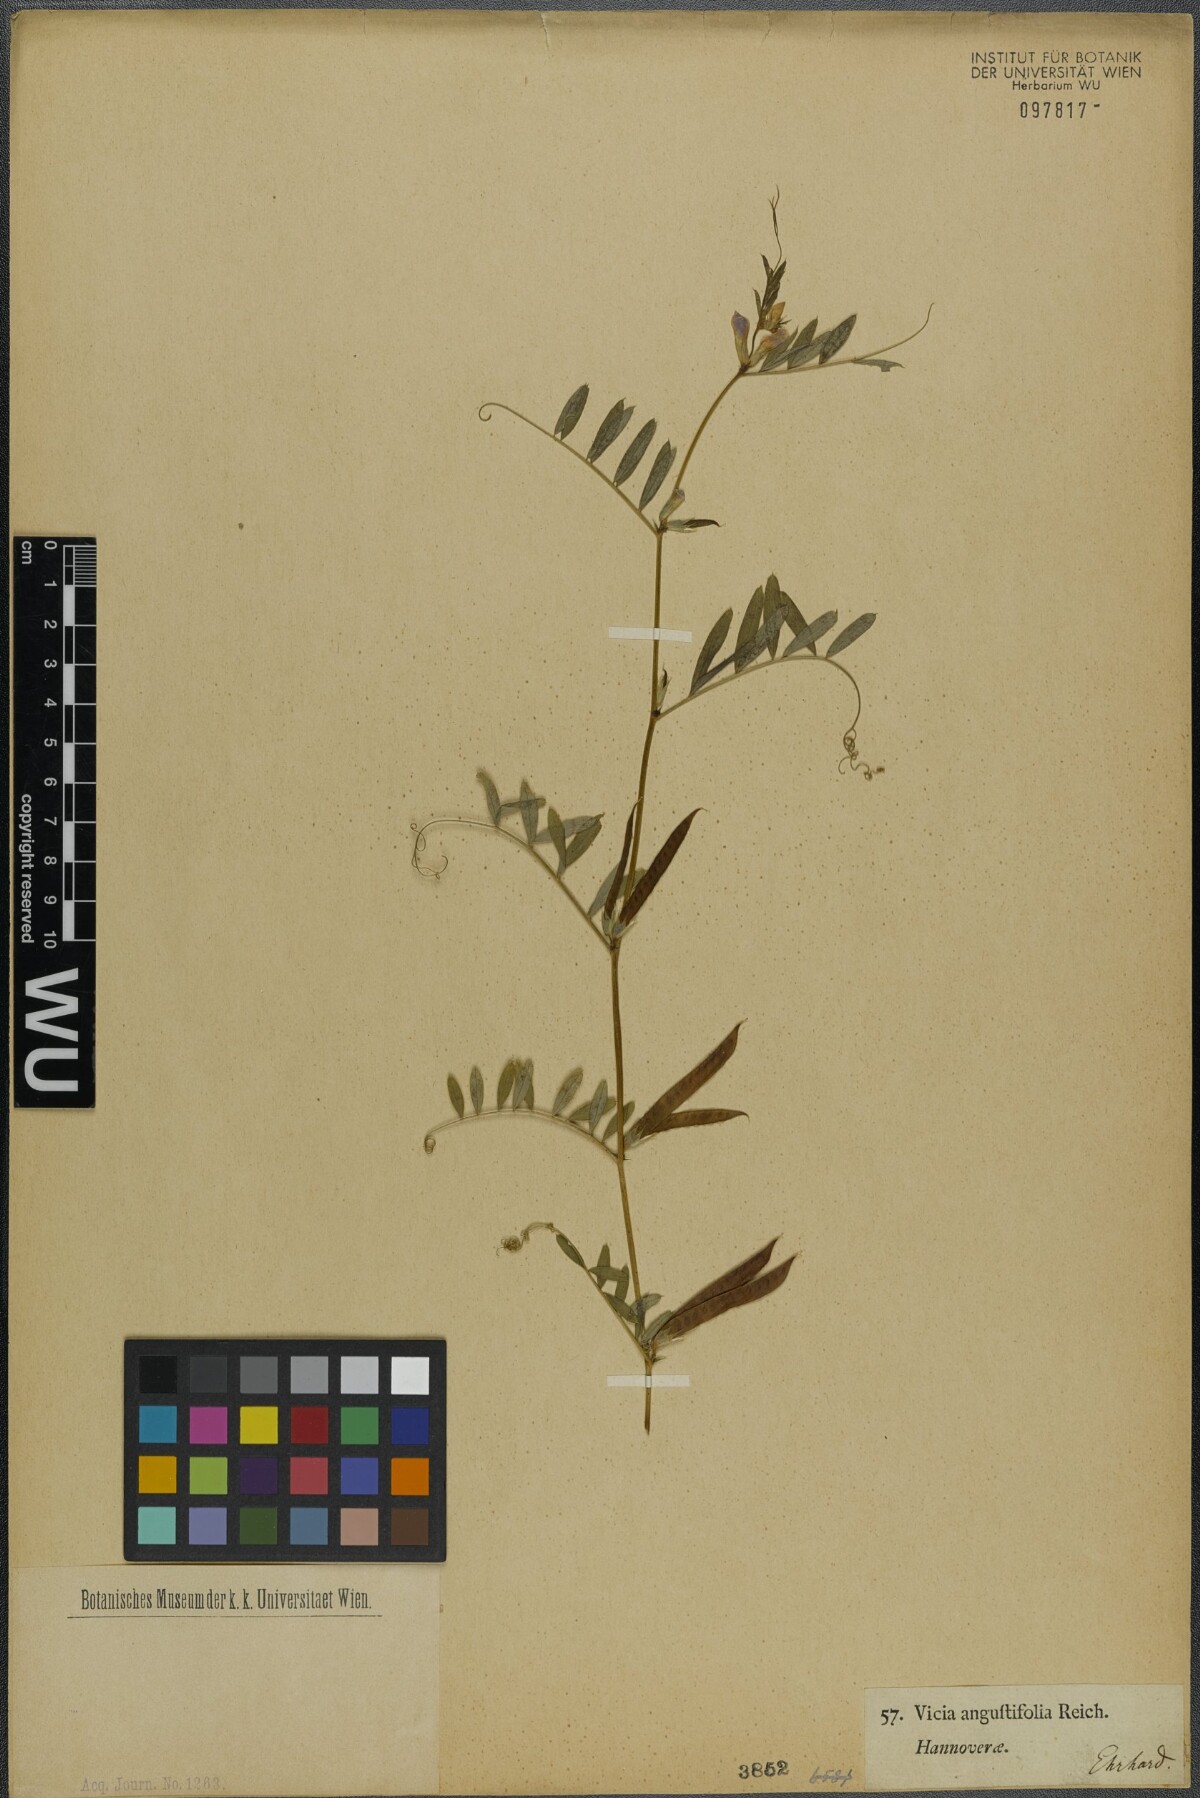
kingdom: Plantae
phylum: Tracheophyta
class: Magnoliopsida
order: Fabales
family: Fabaceae
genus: Vicia
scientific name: Vicia sativa
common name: Garden vetch
